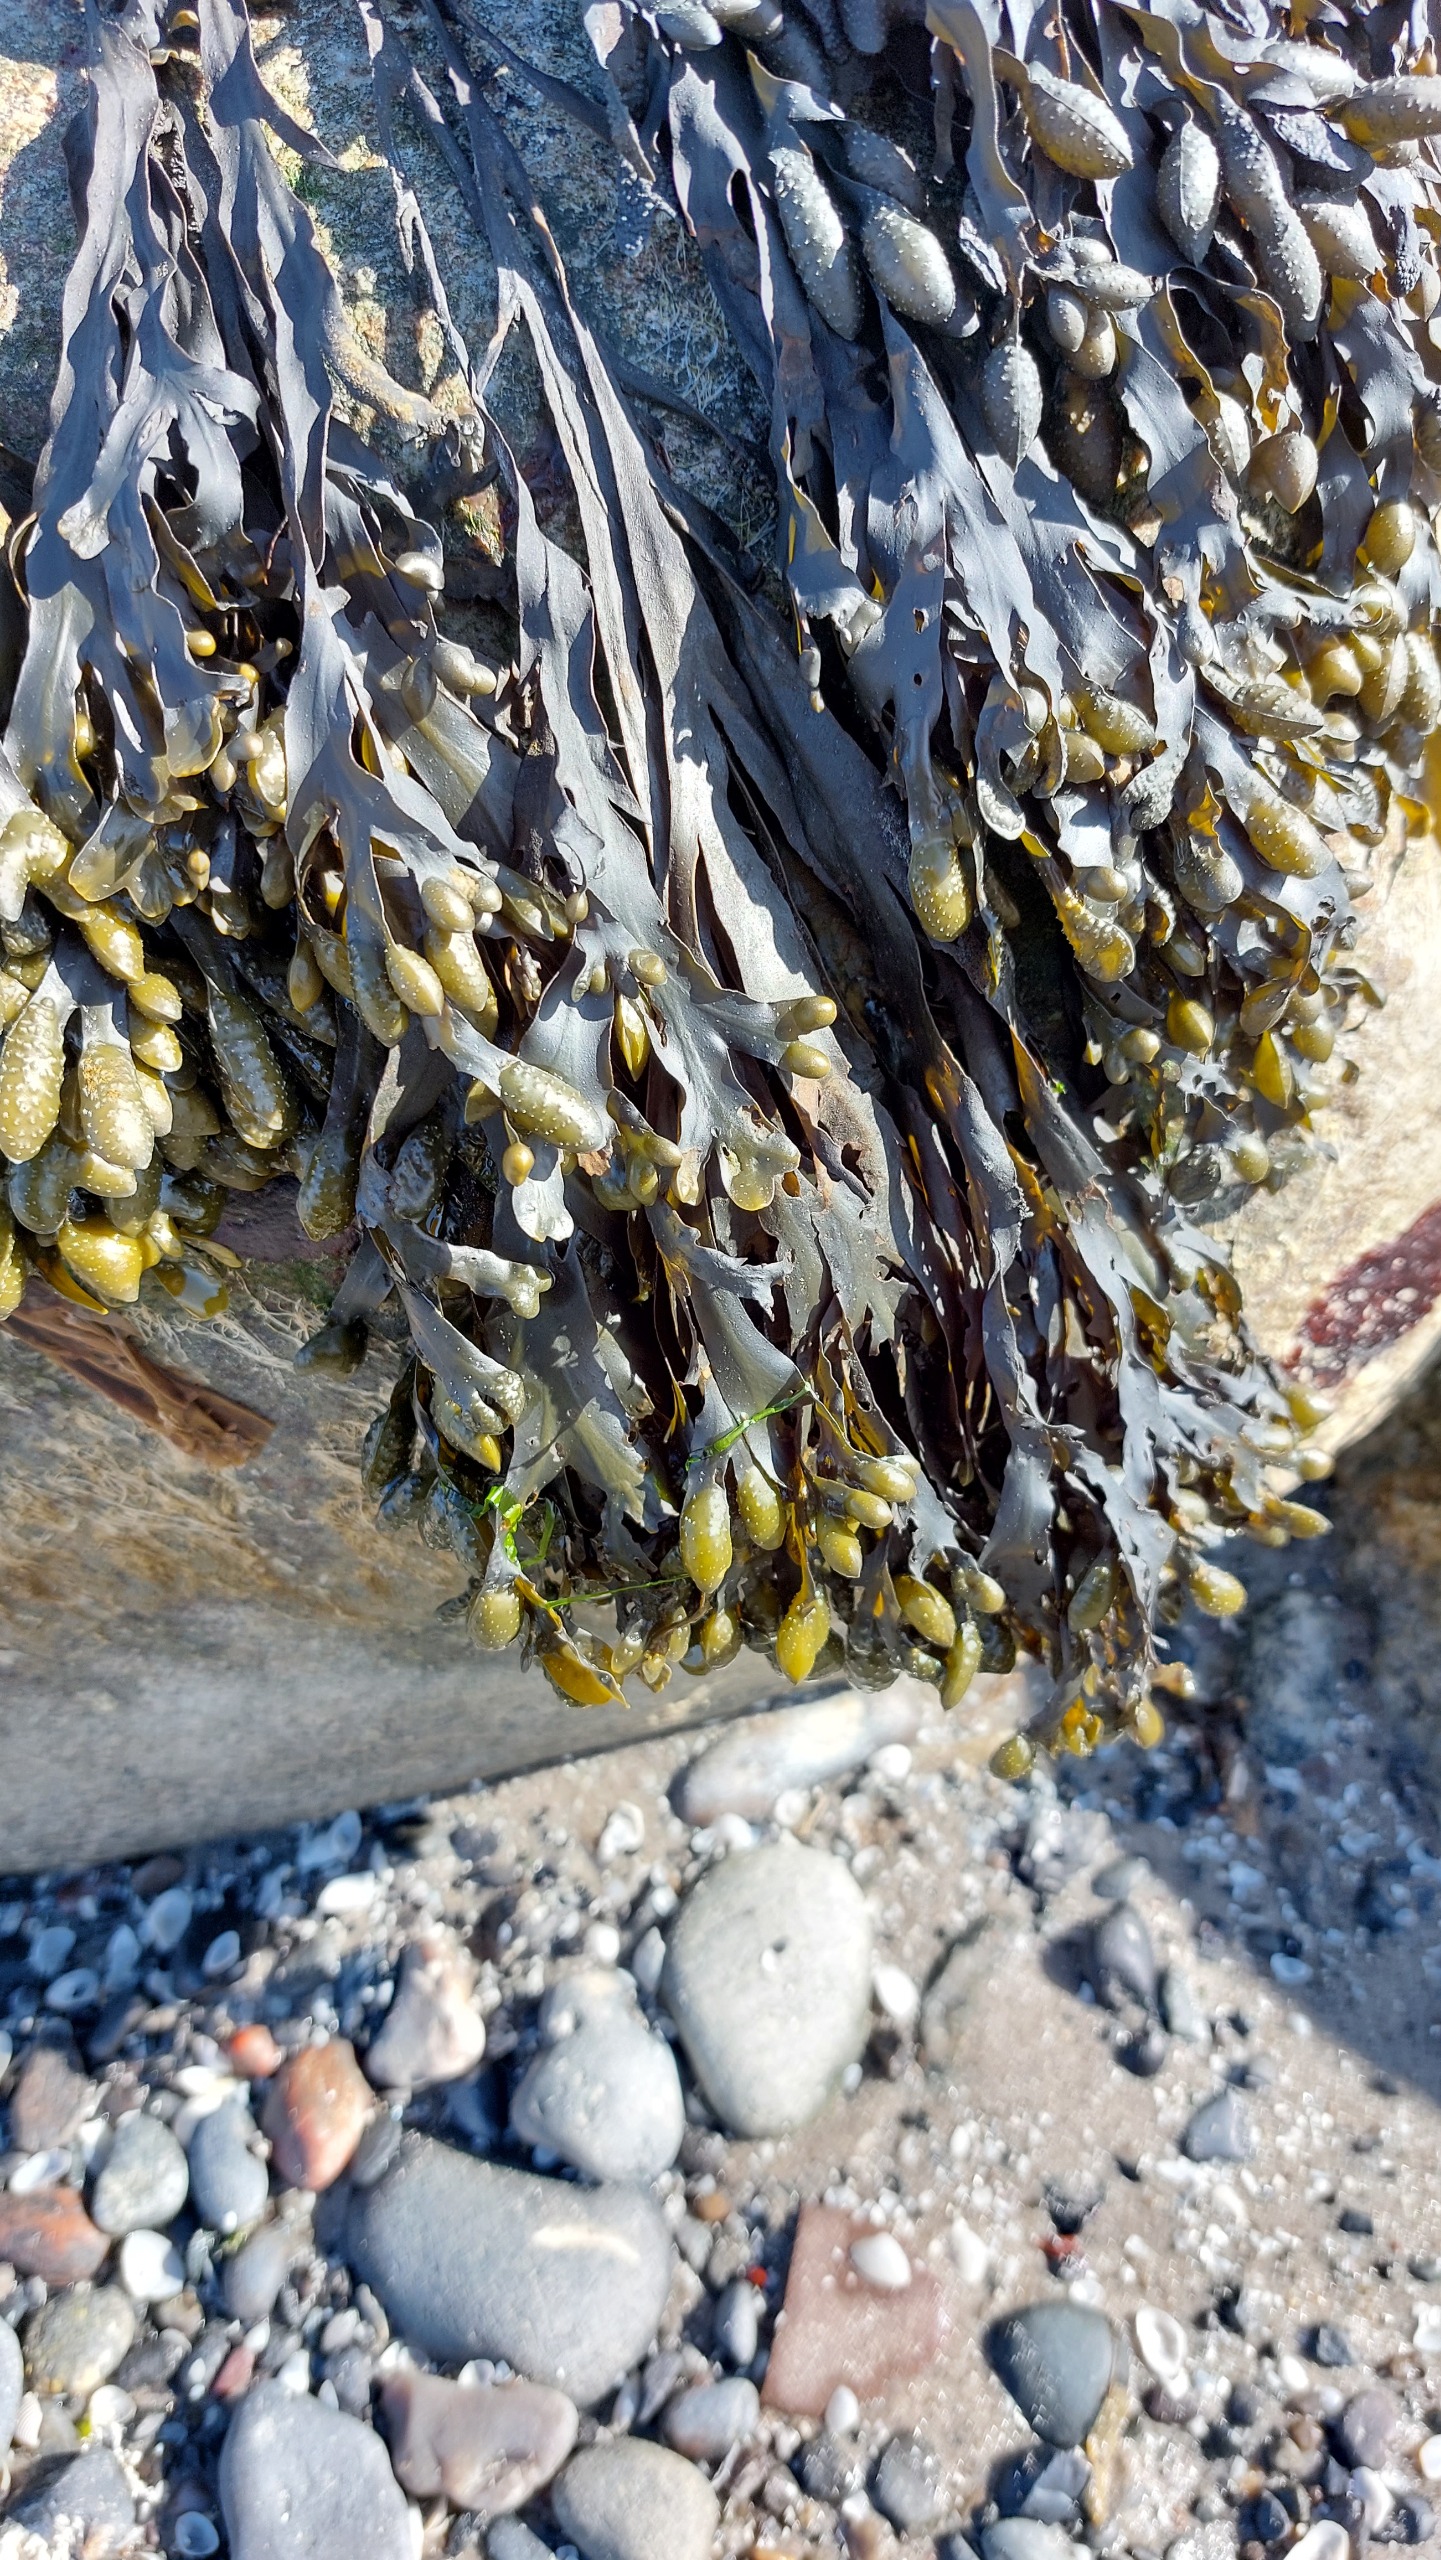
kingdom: Chromista
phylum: Ochrophyta
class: Phaeophyceae
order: Fucales
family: Fucaceae
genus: Fucus
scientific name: Fucus vesiculosus
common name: Blæretang
